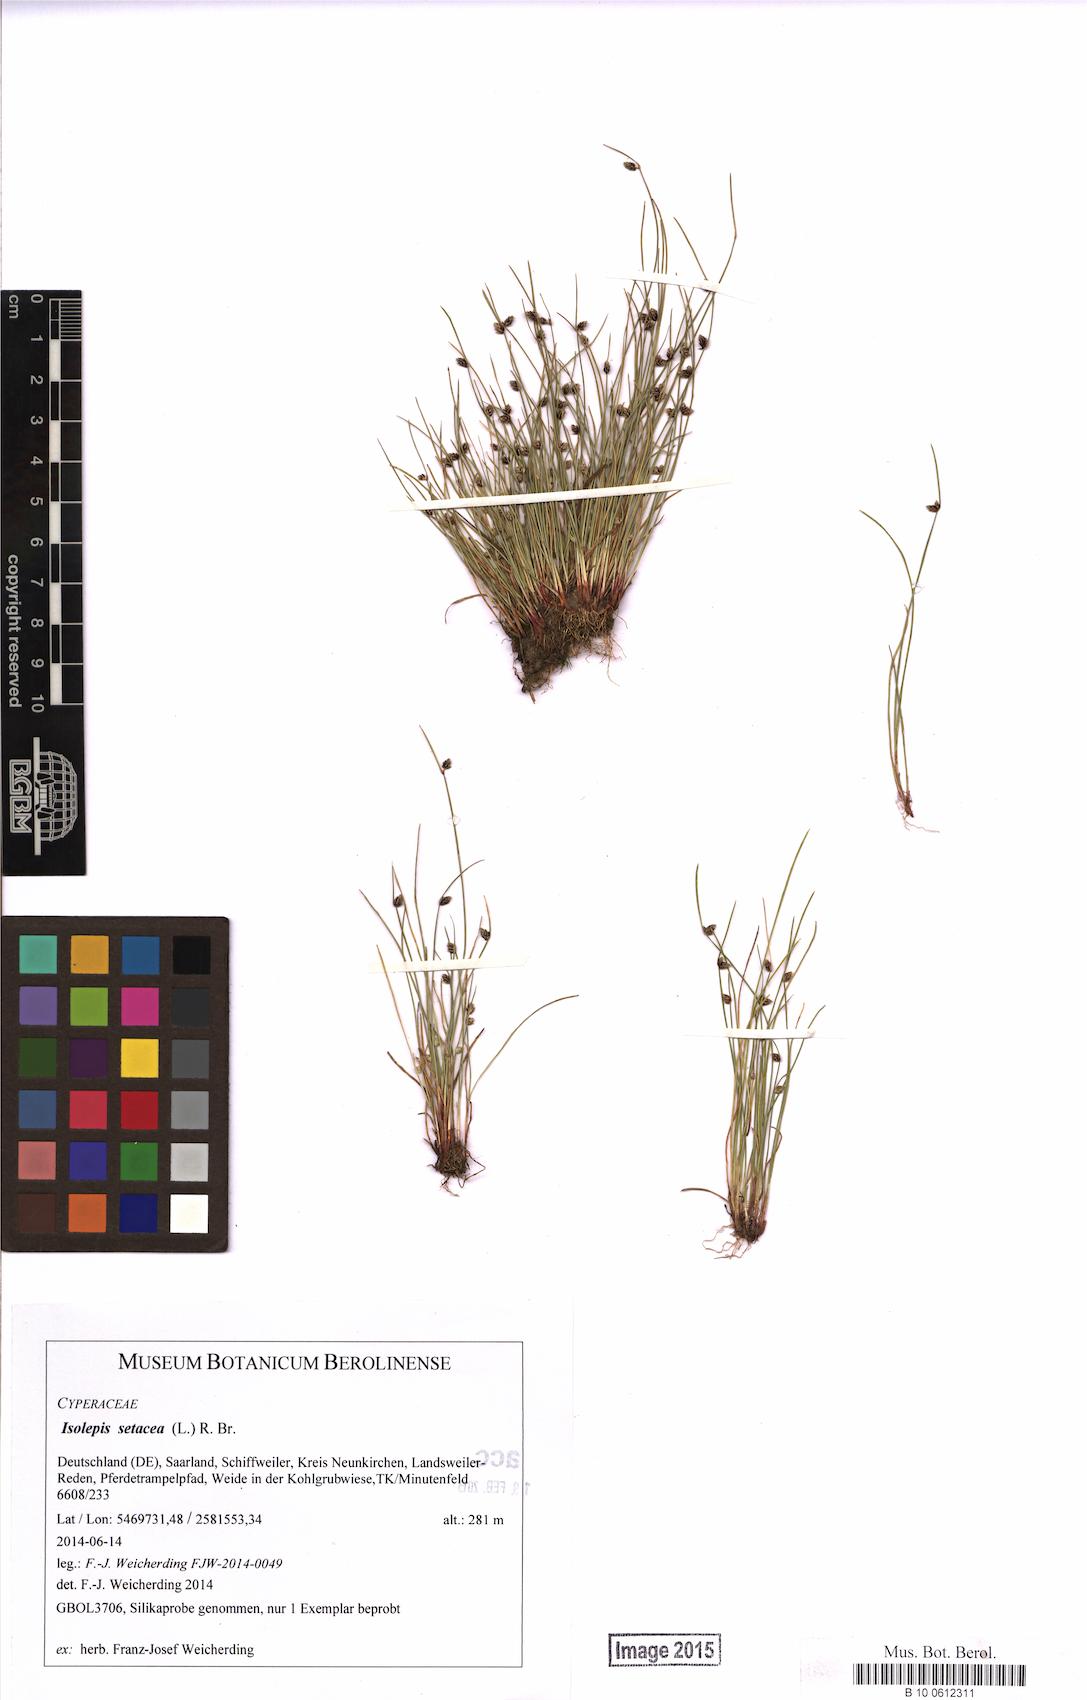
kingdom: Plantae
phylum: Tracheophyta
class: Liliopsida
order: Poales
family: Cyperaceae
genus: Isolepis
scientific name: Isolepis setacea
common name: Bristle club-rush
